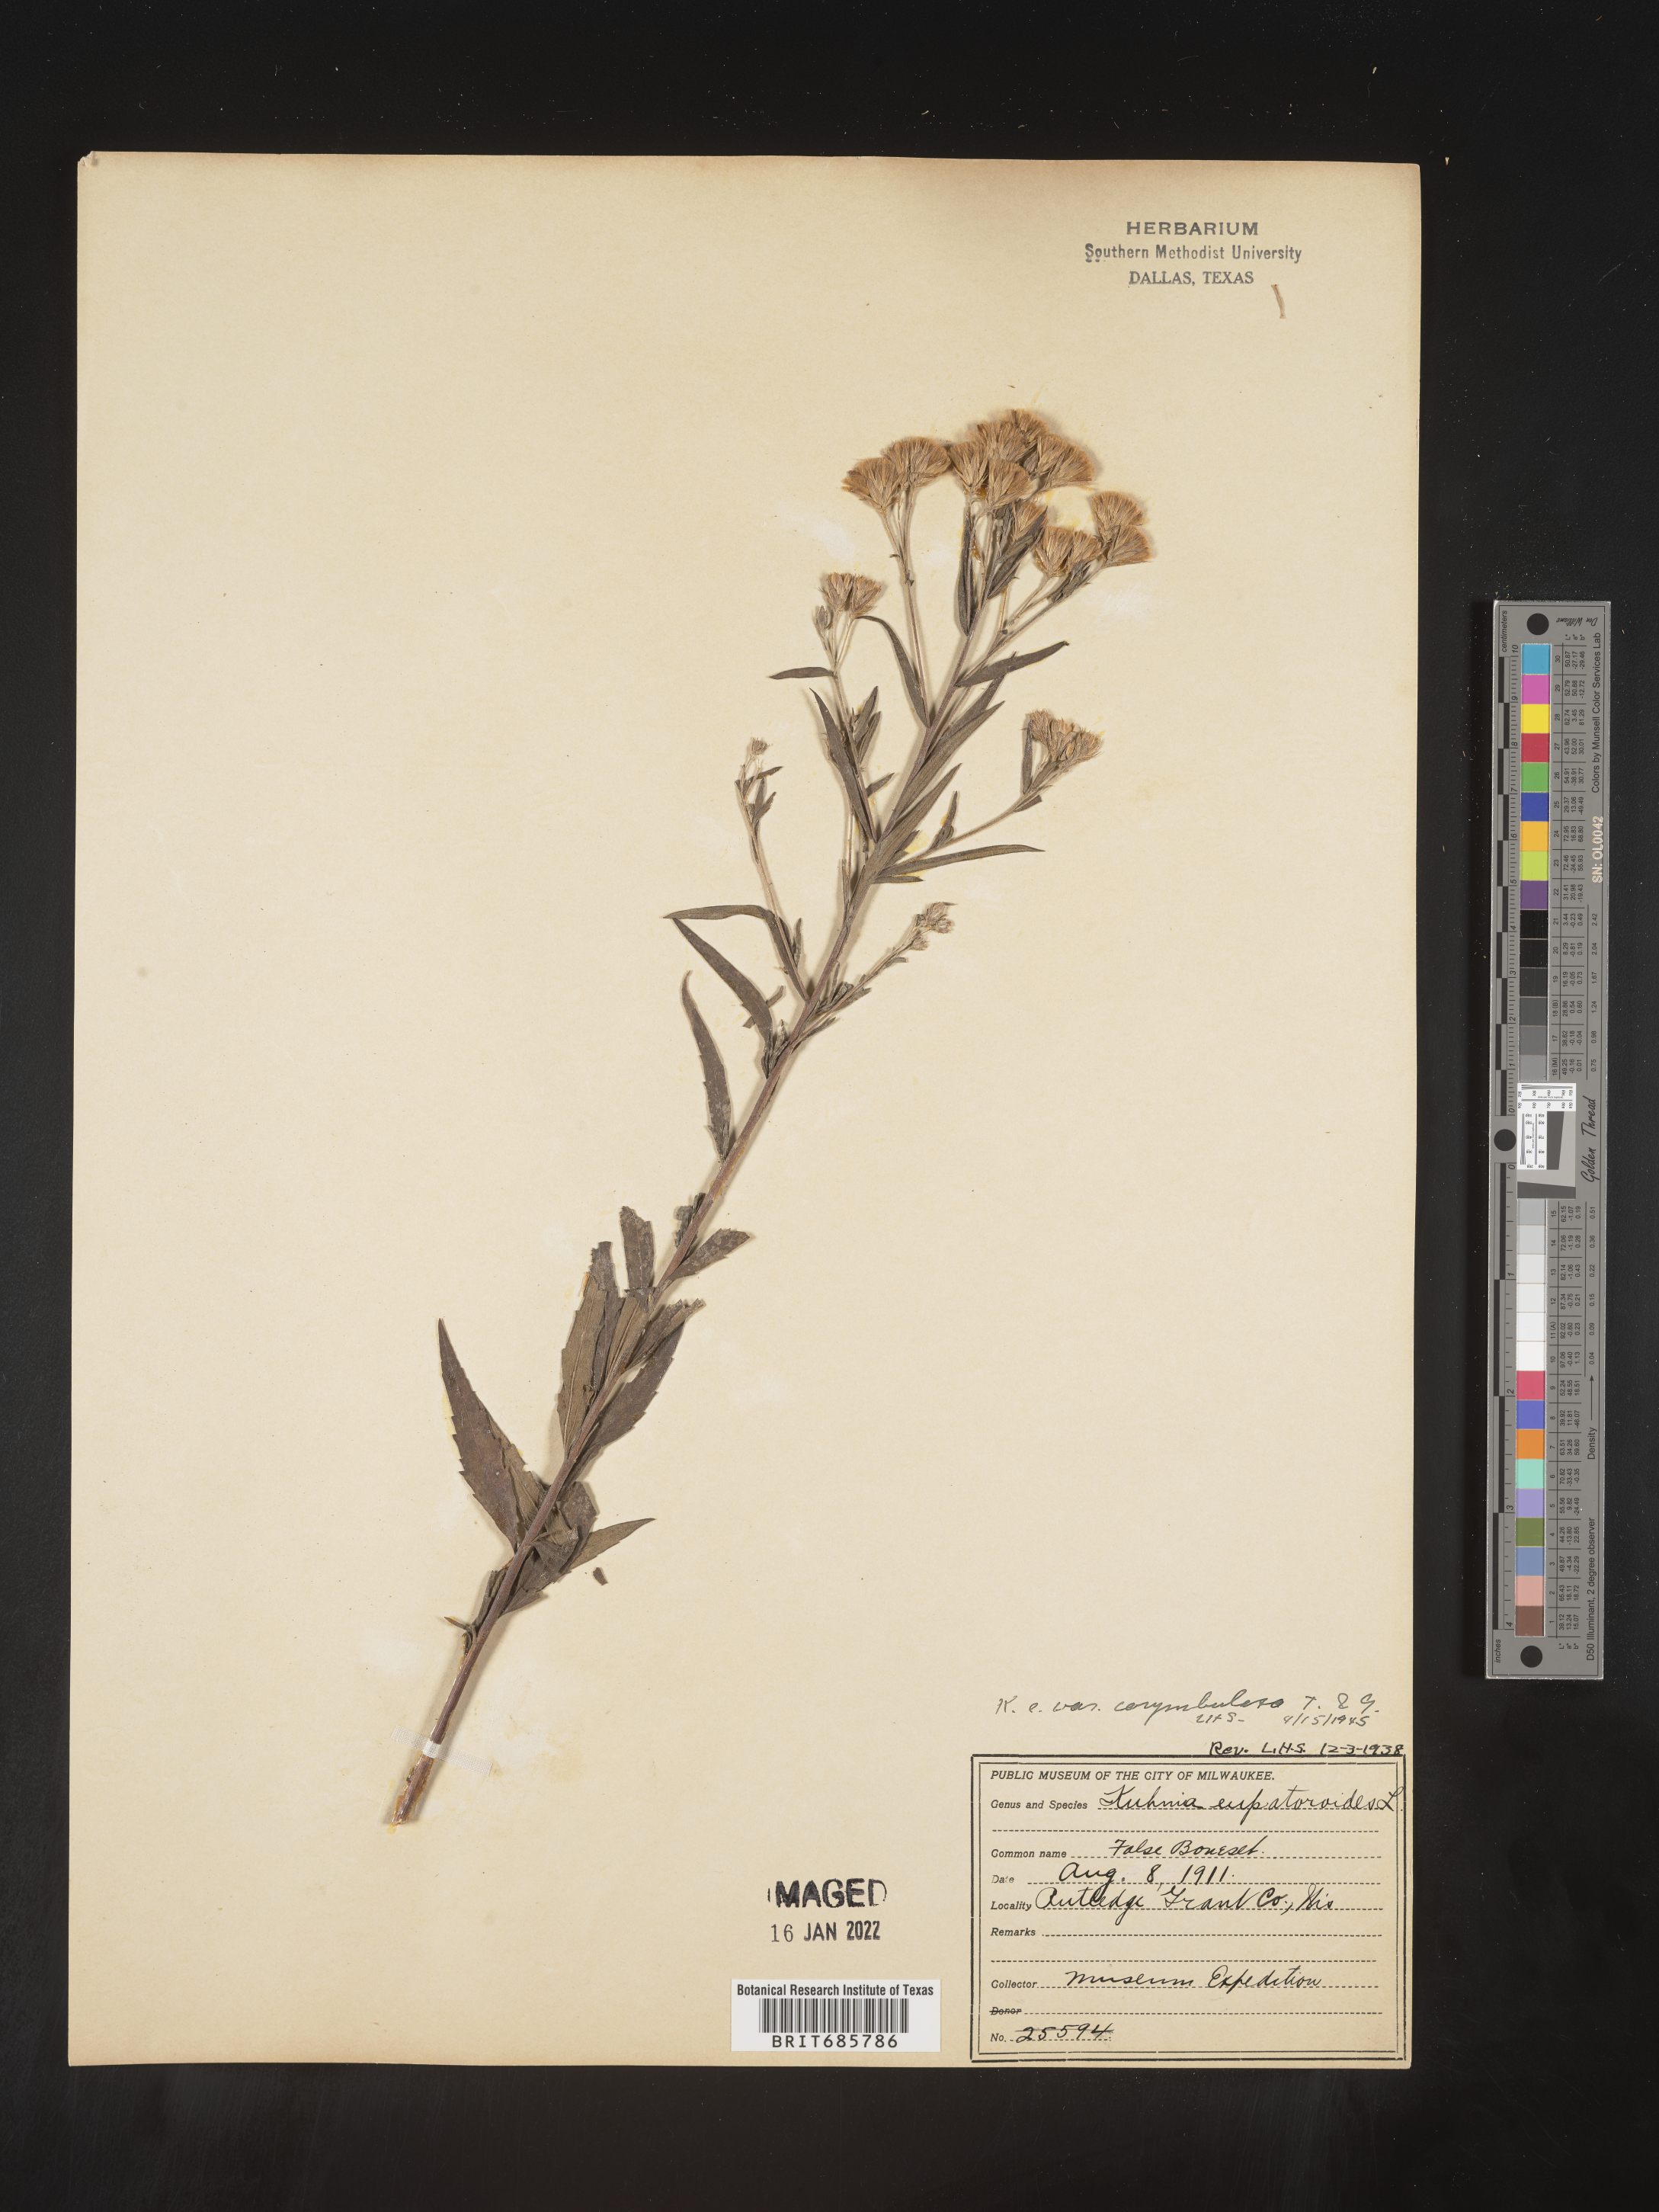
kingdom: Plantae
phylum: Tracheophyta
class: Magnoliopsida
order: Asterales
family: Asteraceae
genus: Brickellia
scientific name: Brickellia eupatorioides
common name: False boneset
